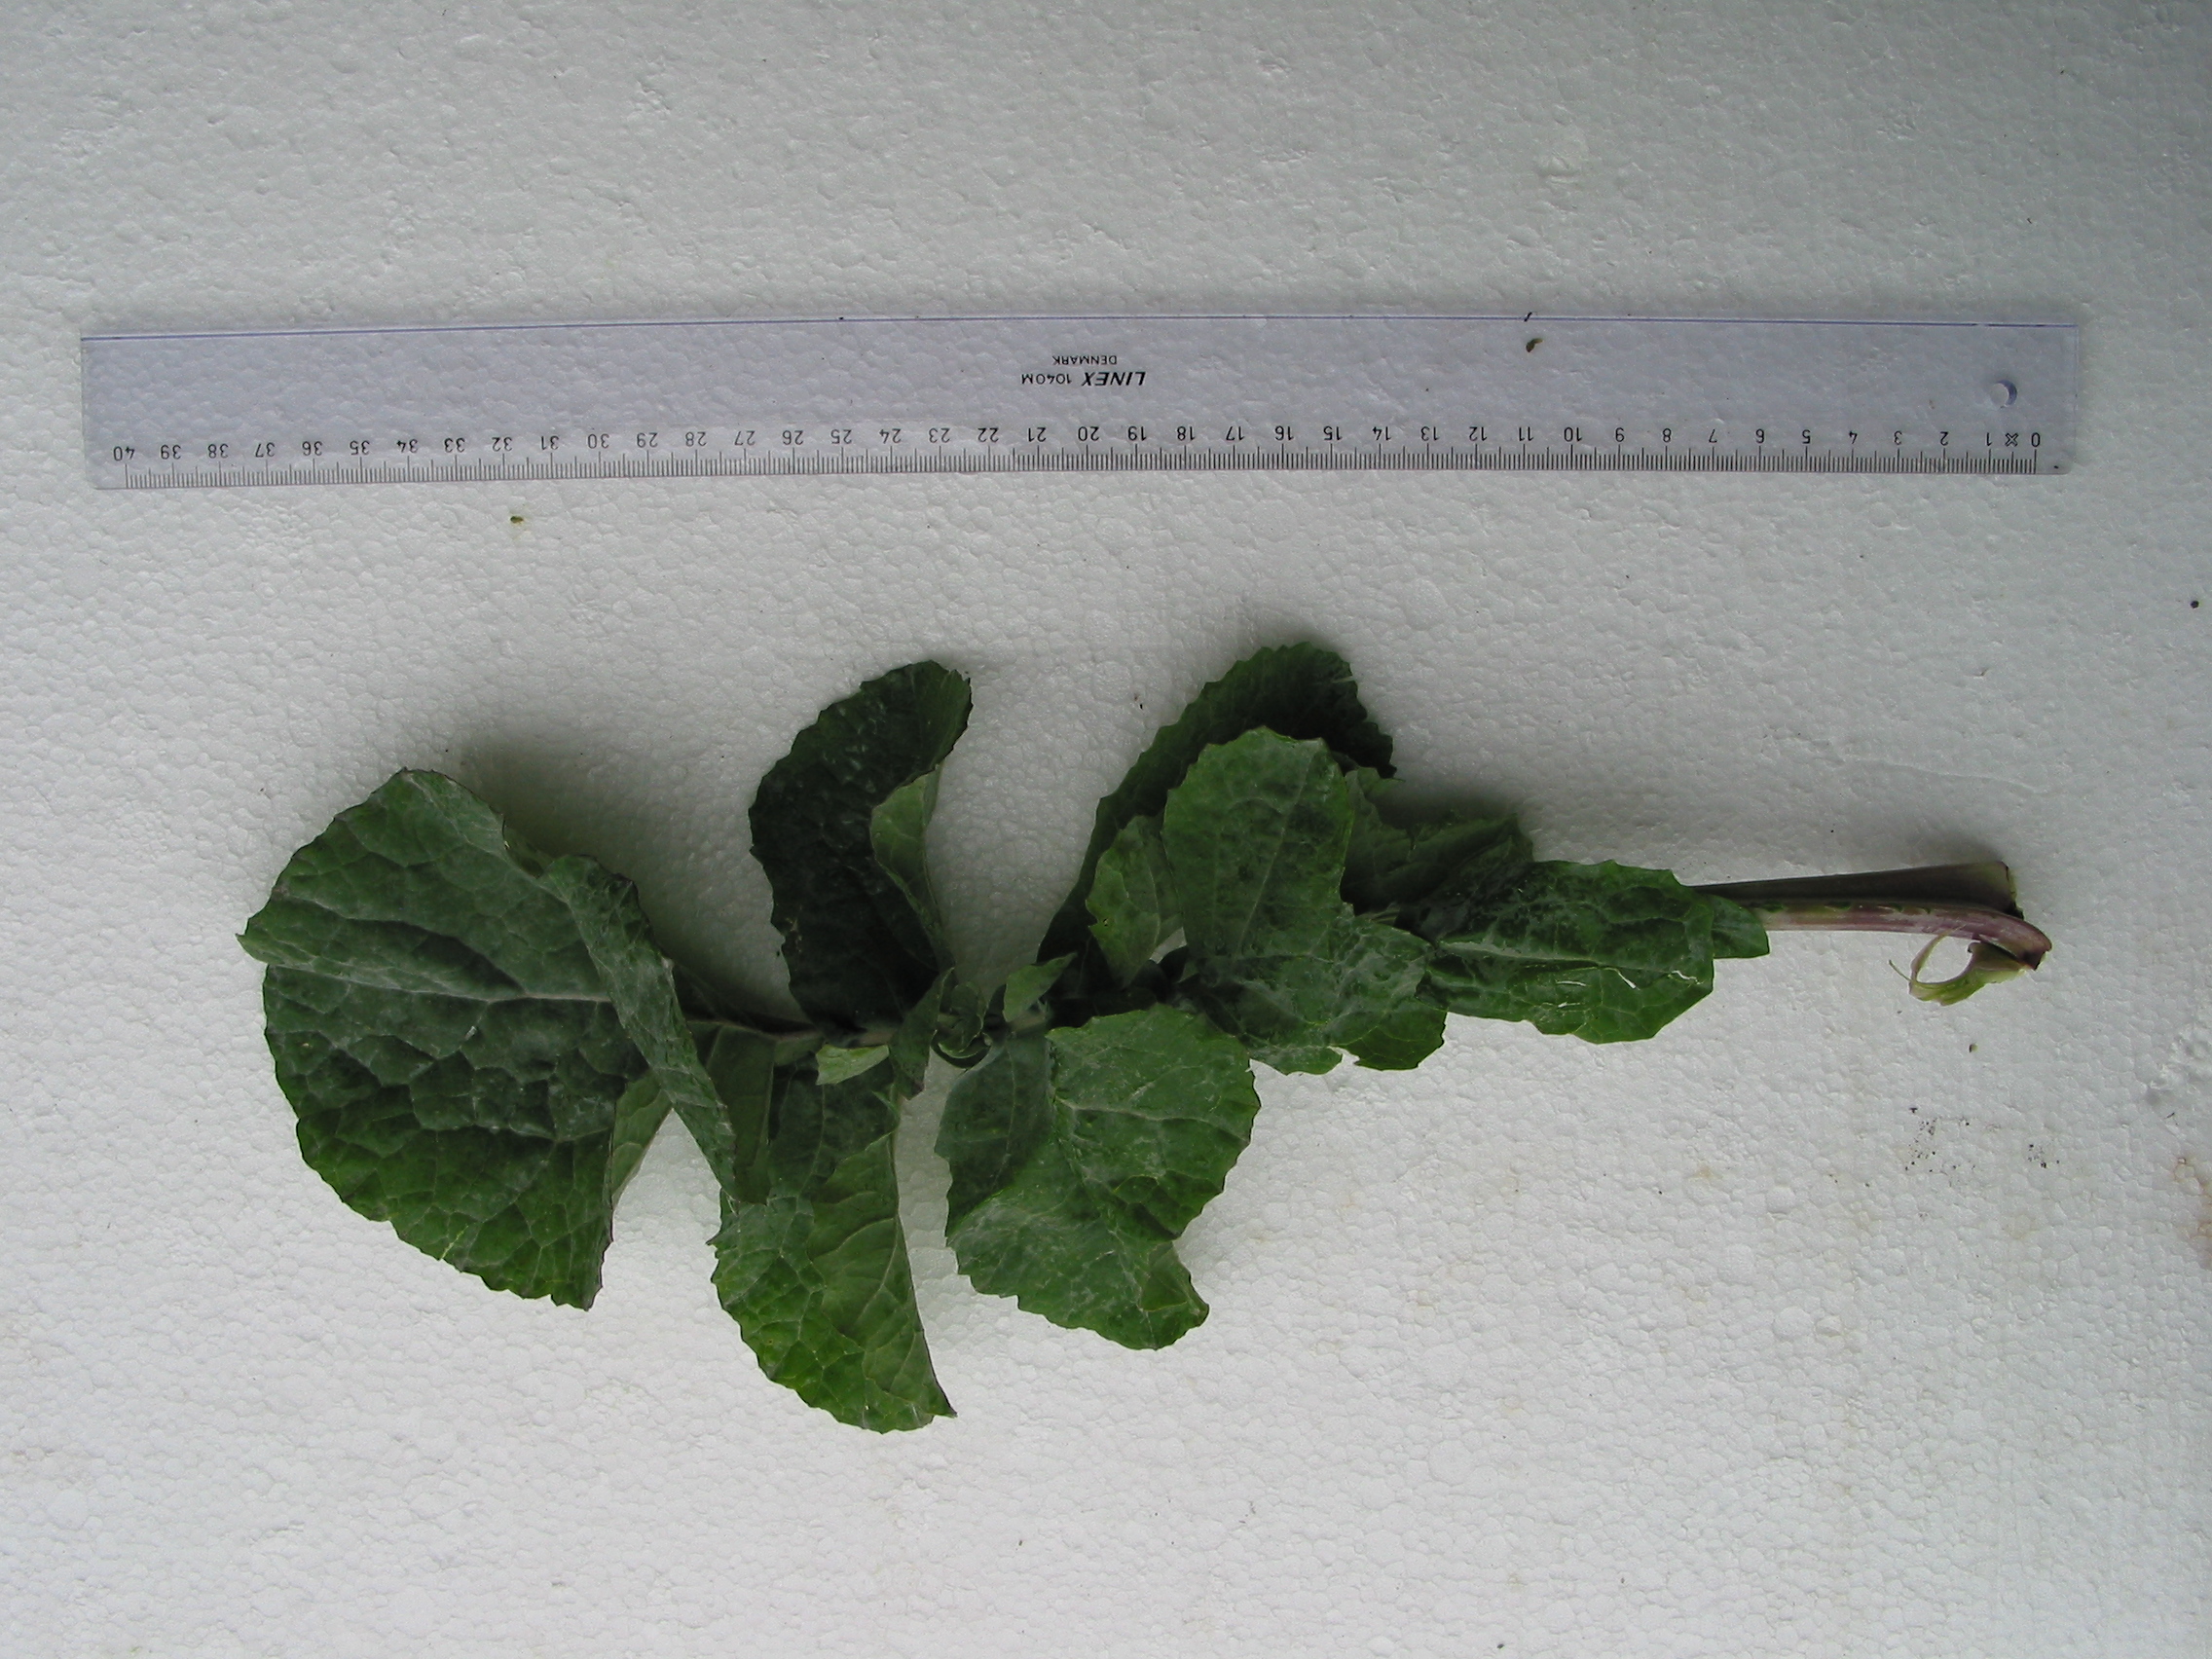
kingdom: Plantae
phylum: Tracheophyta
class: Magnoliopsida
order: Brassicales
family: Brassicaceae
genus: Brassica
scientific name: Brassica napus
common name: Rape
